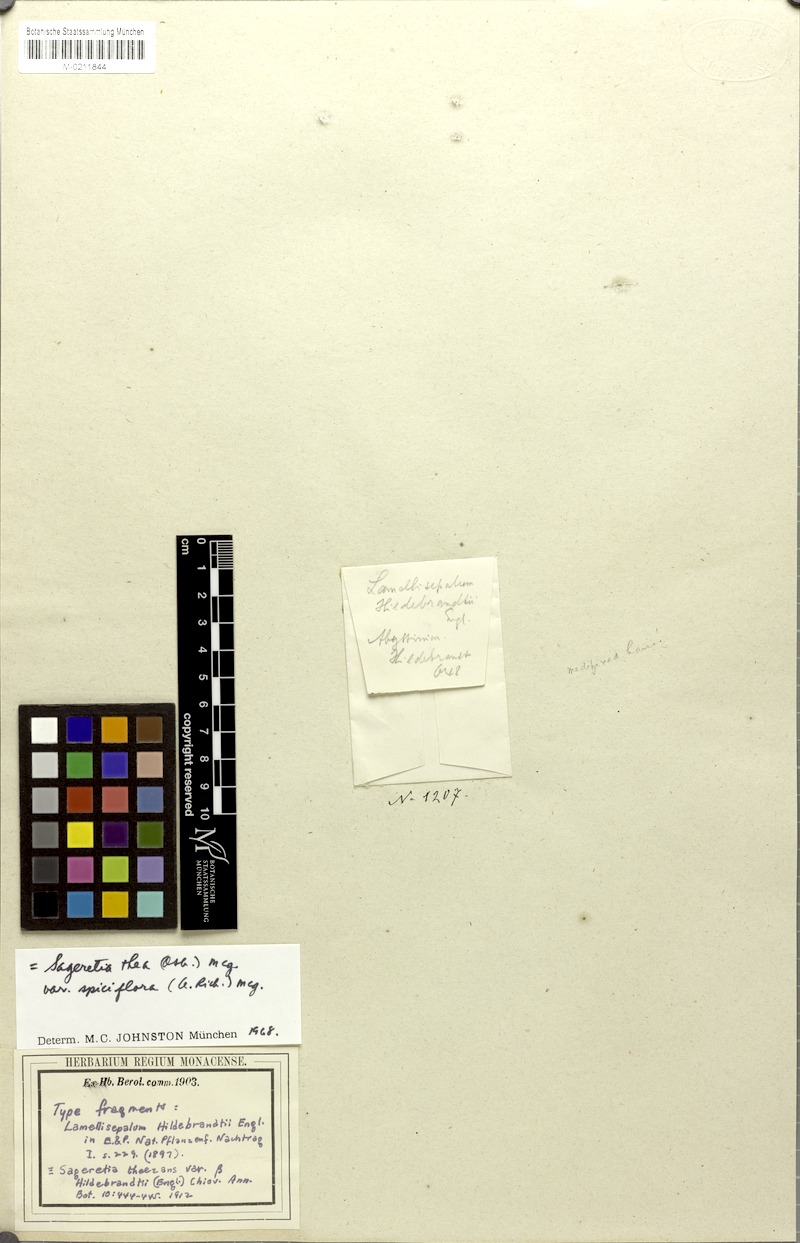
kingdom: Plantae
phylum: Tracheophyta
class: Magnoliopsida
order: Rosales
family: Rhamnaceae
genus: Sageretia
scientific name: Sageretia thea
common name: Pauper's-tea
